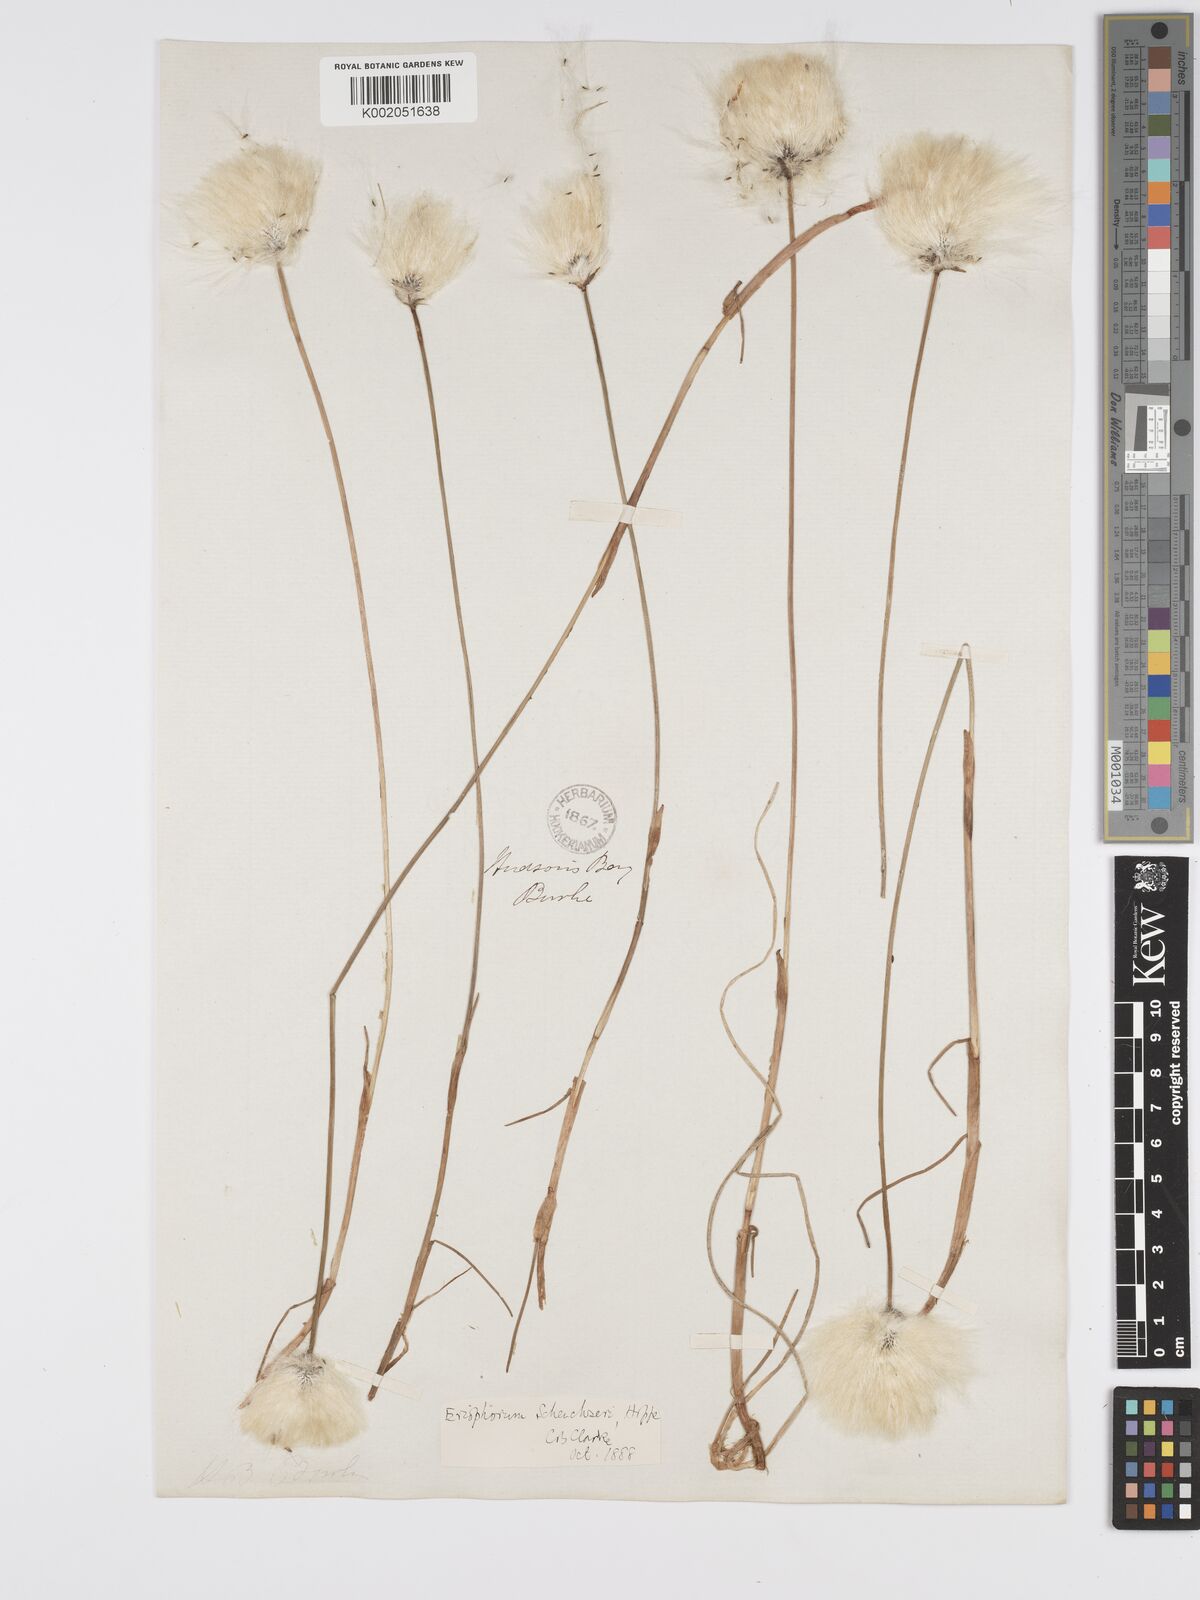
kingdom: Plantae
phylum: Tracheophyta
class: Liliopsida
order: Poales
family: Cyperaceae
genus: Eriophorum
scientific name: Eriophorum scheuchzeri
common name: Scheuchzer's cottongrass
